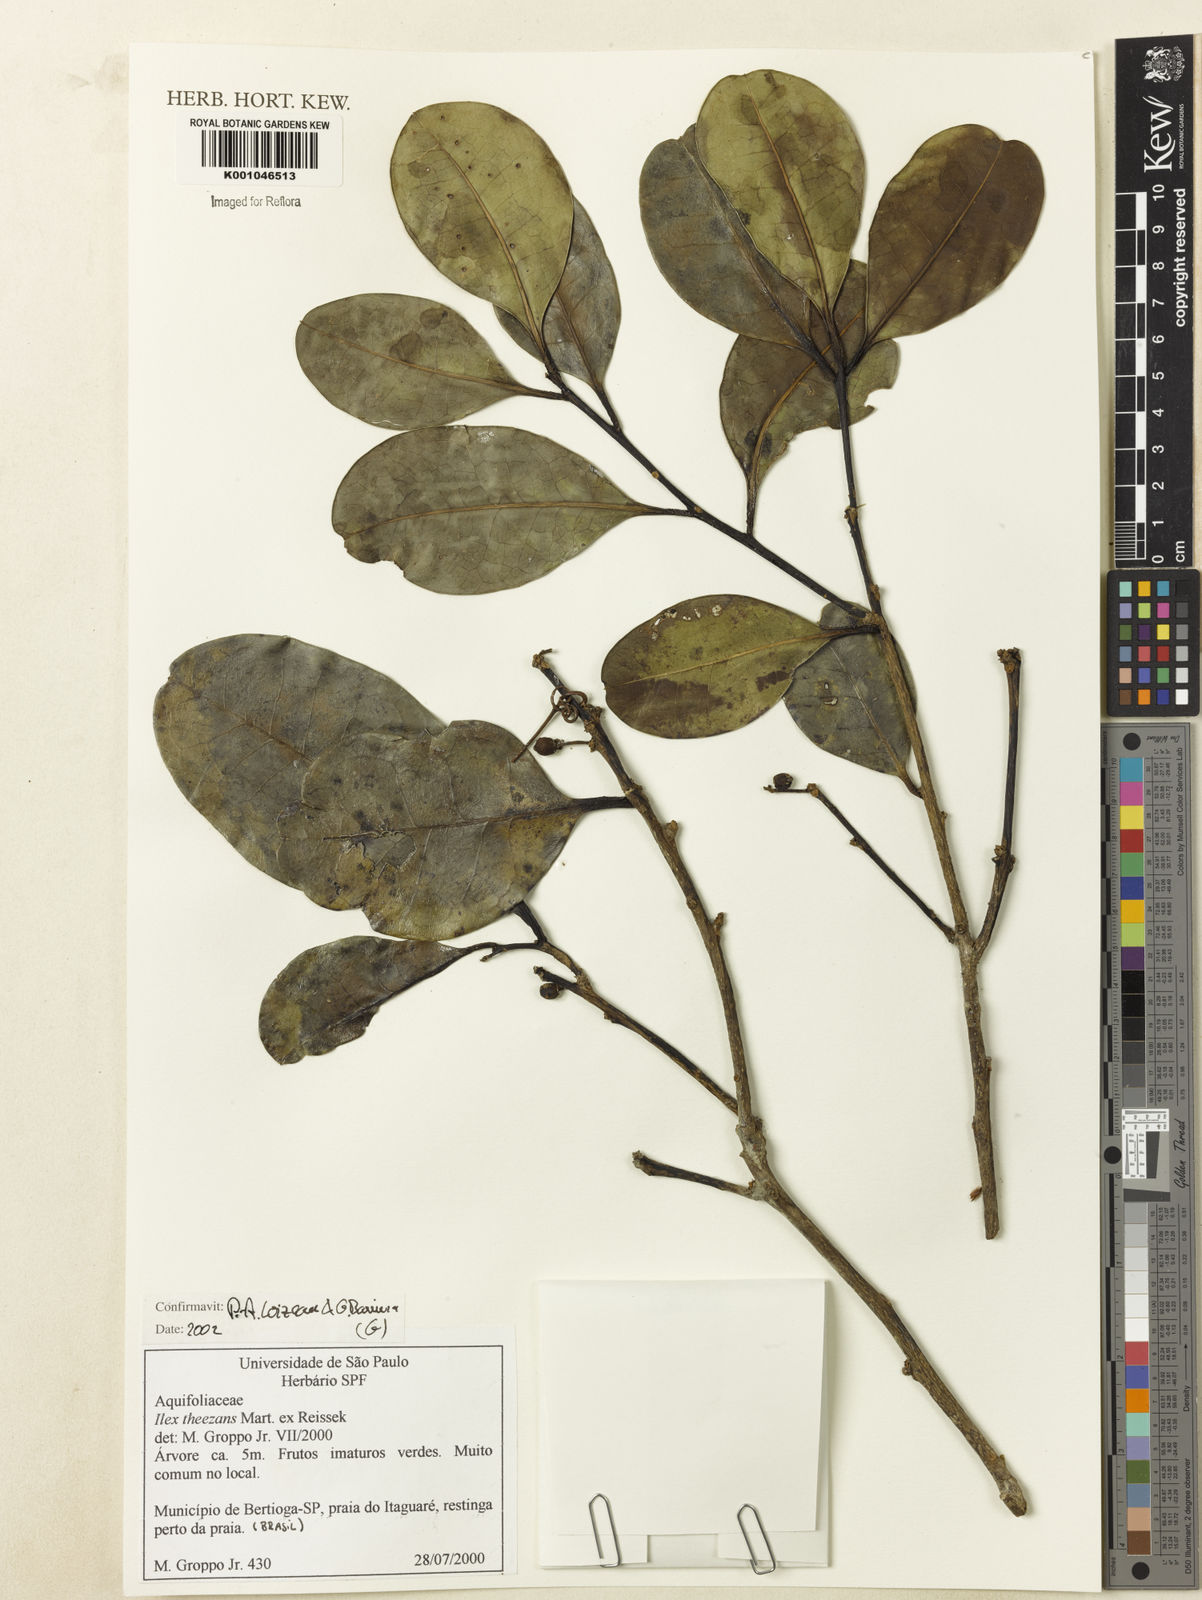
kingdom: Plantae
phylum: Tracheophyta
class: Magnoliopsida
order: Aquifoliales
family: Aquifoliaceae
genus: Ilex
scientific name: Ilex theezans
